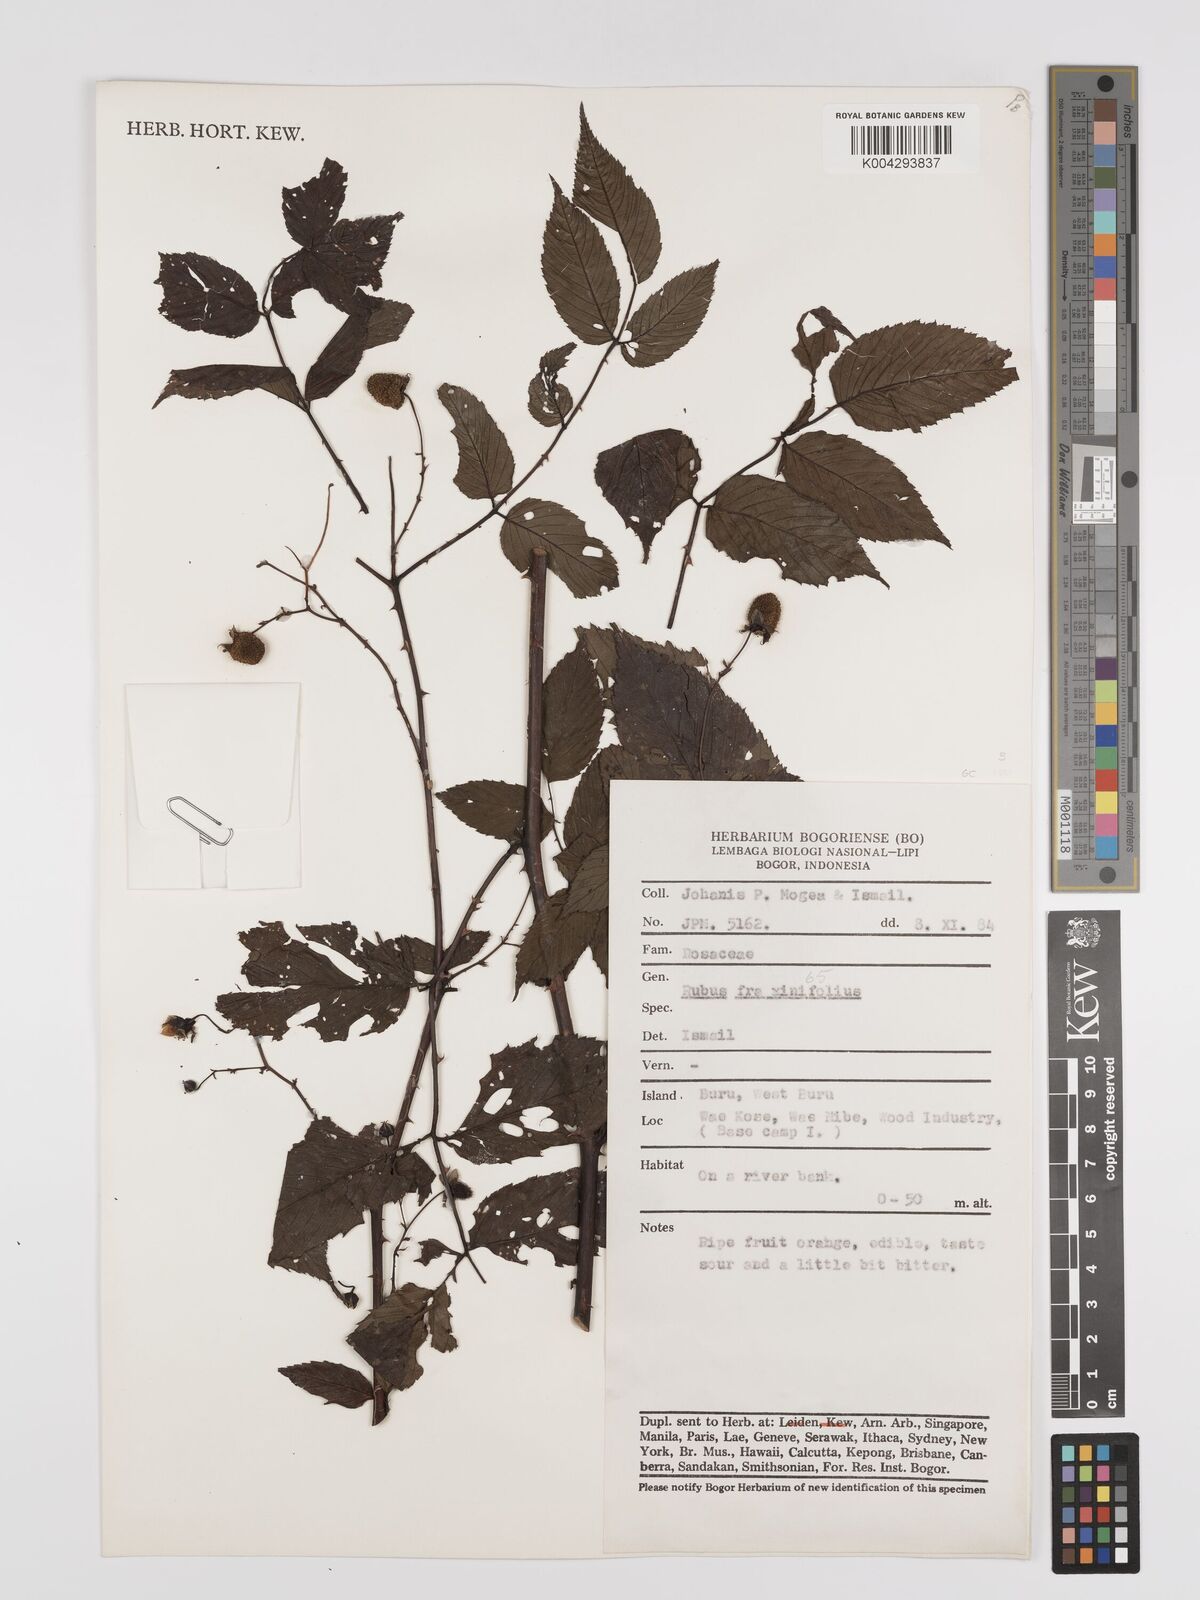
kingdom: Plantae
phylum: Tracheophyta
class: Magnoliopsida
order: Rosales
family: Rosaceae
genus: Rubus
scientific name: Rubus fraxinifolius
